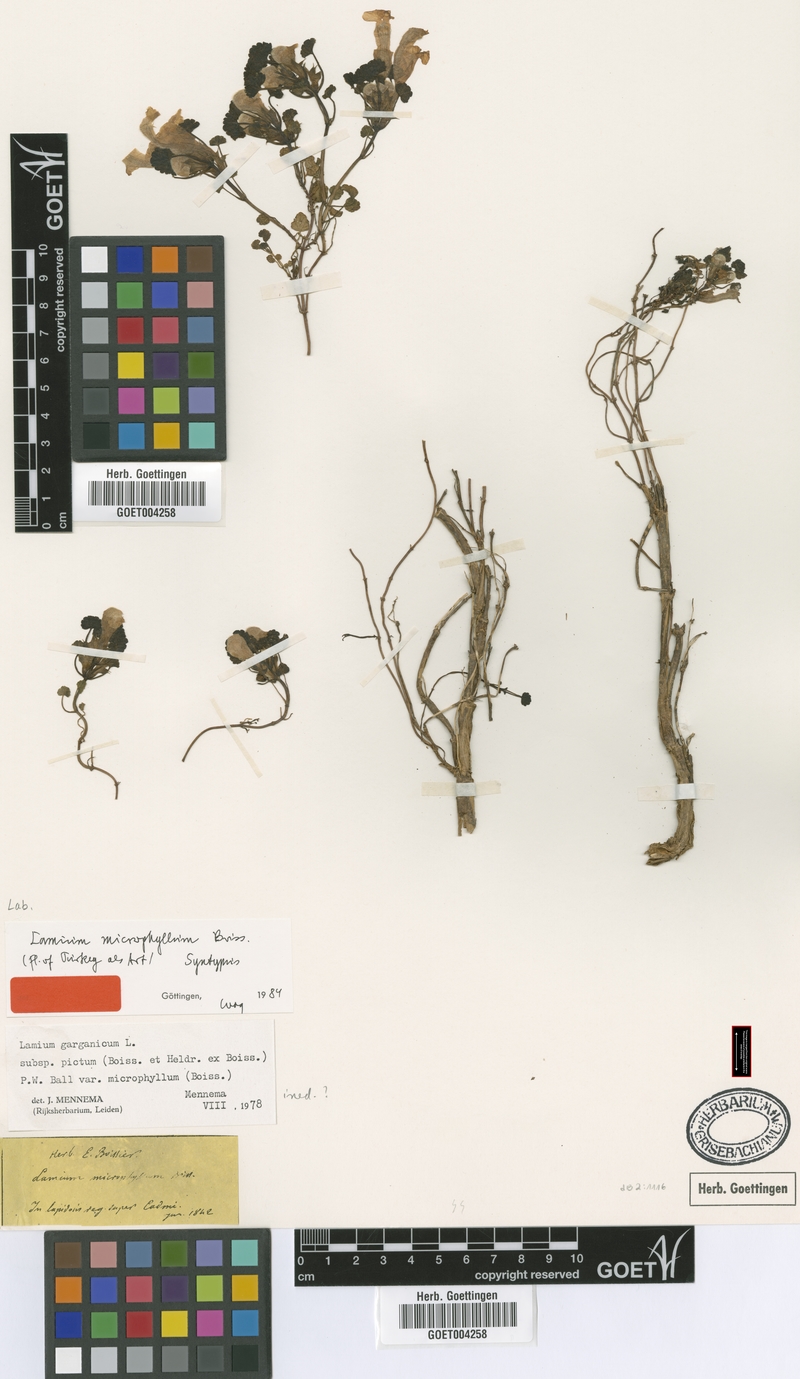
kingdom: Plantae
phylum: Tracheophyta
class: Magnoliopsida
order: Lamiales
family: Lamiaceae
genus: Lamium
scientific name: Lamium garganicum
